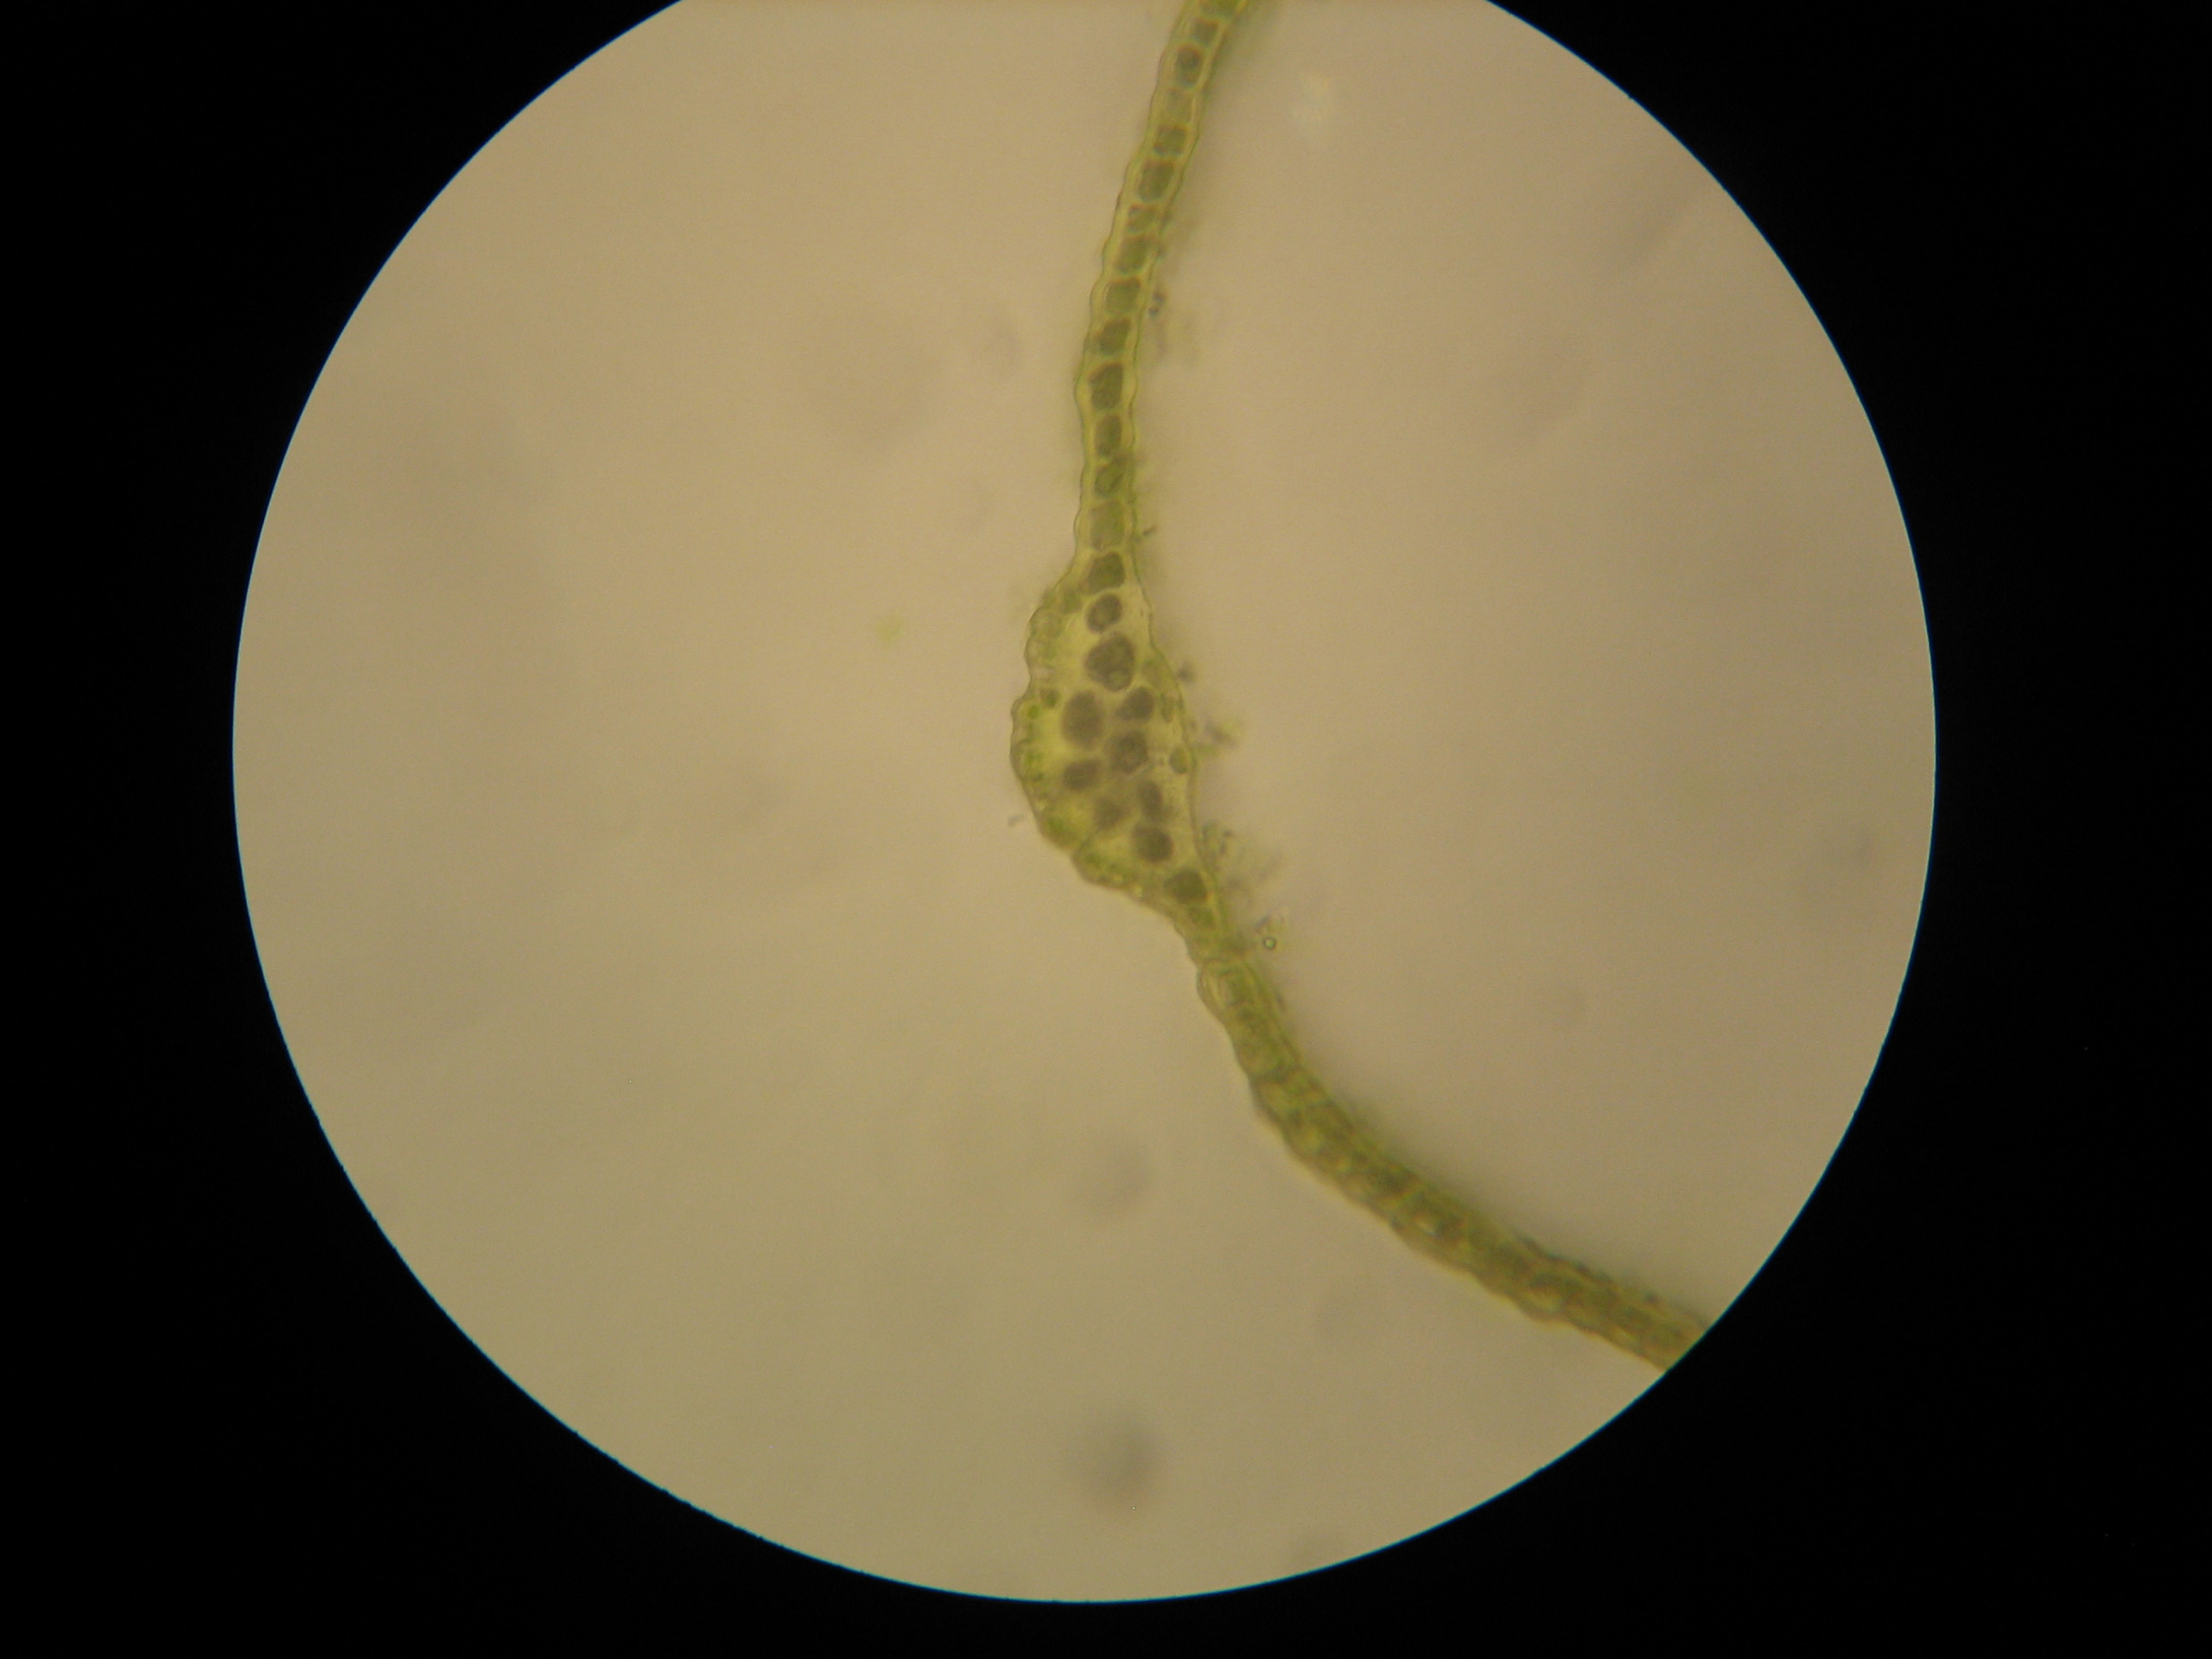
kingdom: Plantae
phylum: Bryophyta
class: Bryopsida
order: Dicranales
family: Dicranaceae
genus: Dicranum
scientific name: Dicranum majus
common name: Stor kløvtand
